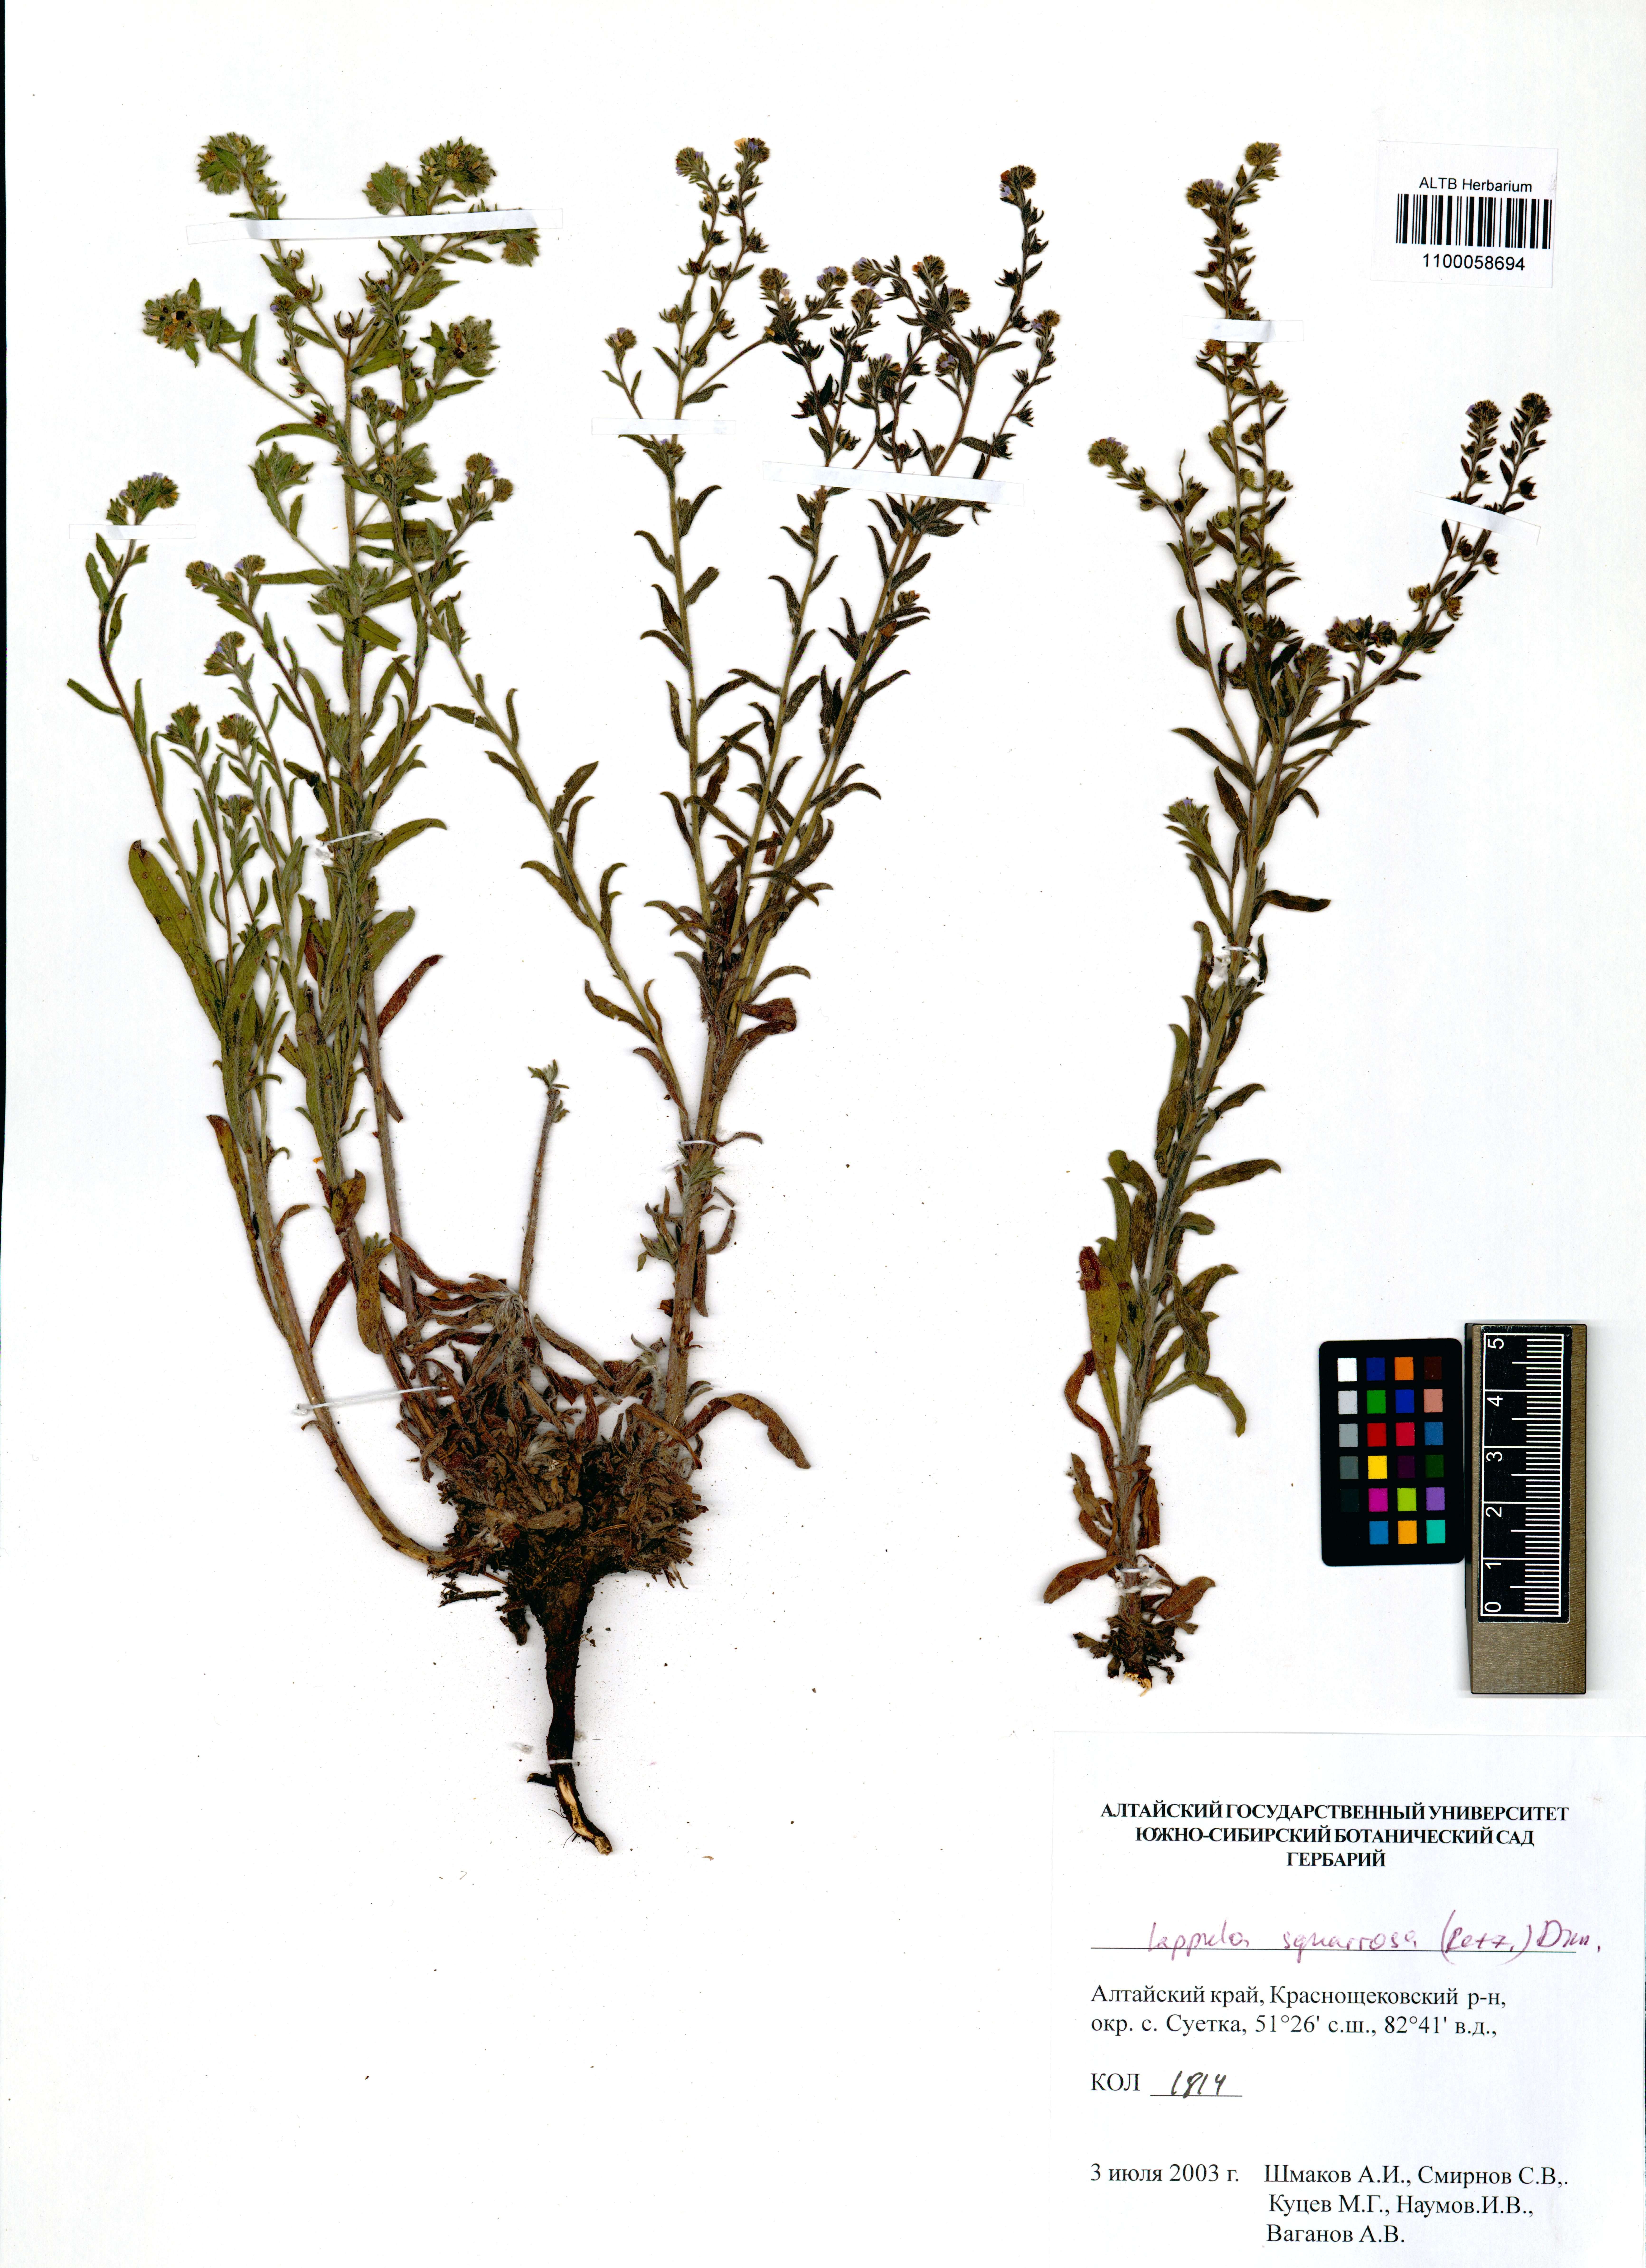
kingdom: Plantae
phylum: Tracheophyta
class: Magnoliopsida
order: Boraginales
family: Boraginaceae
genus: Lappula
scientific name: Lappula squarrosa
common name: European stickseed
